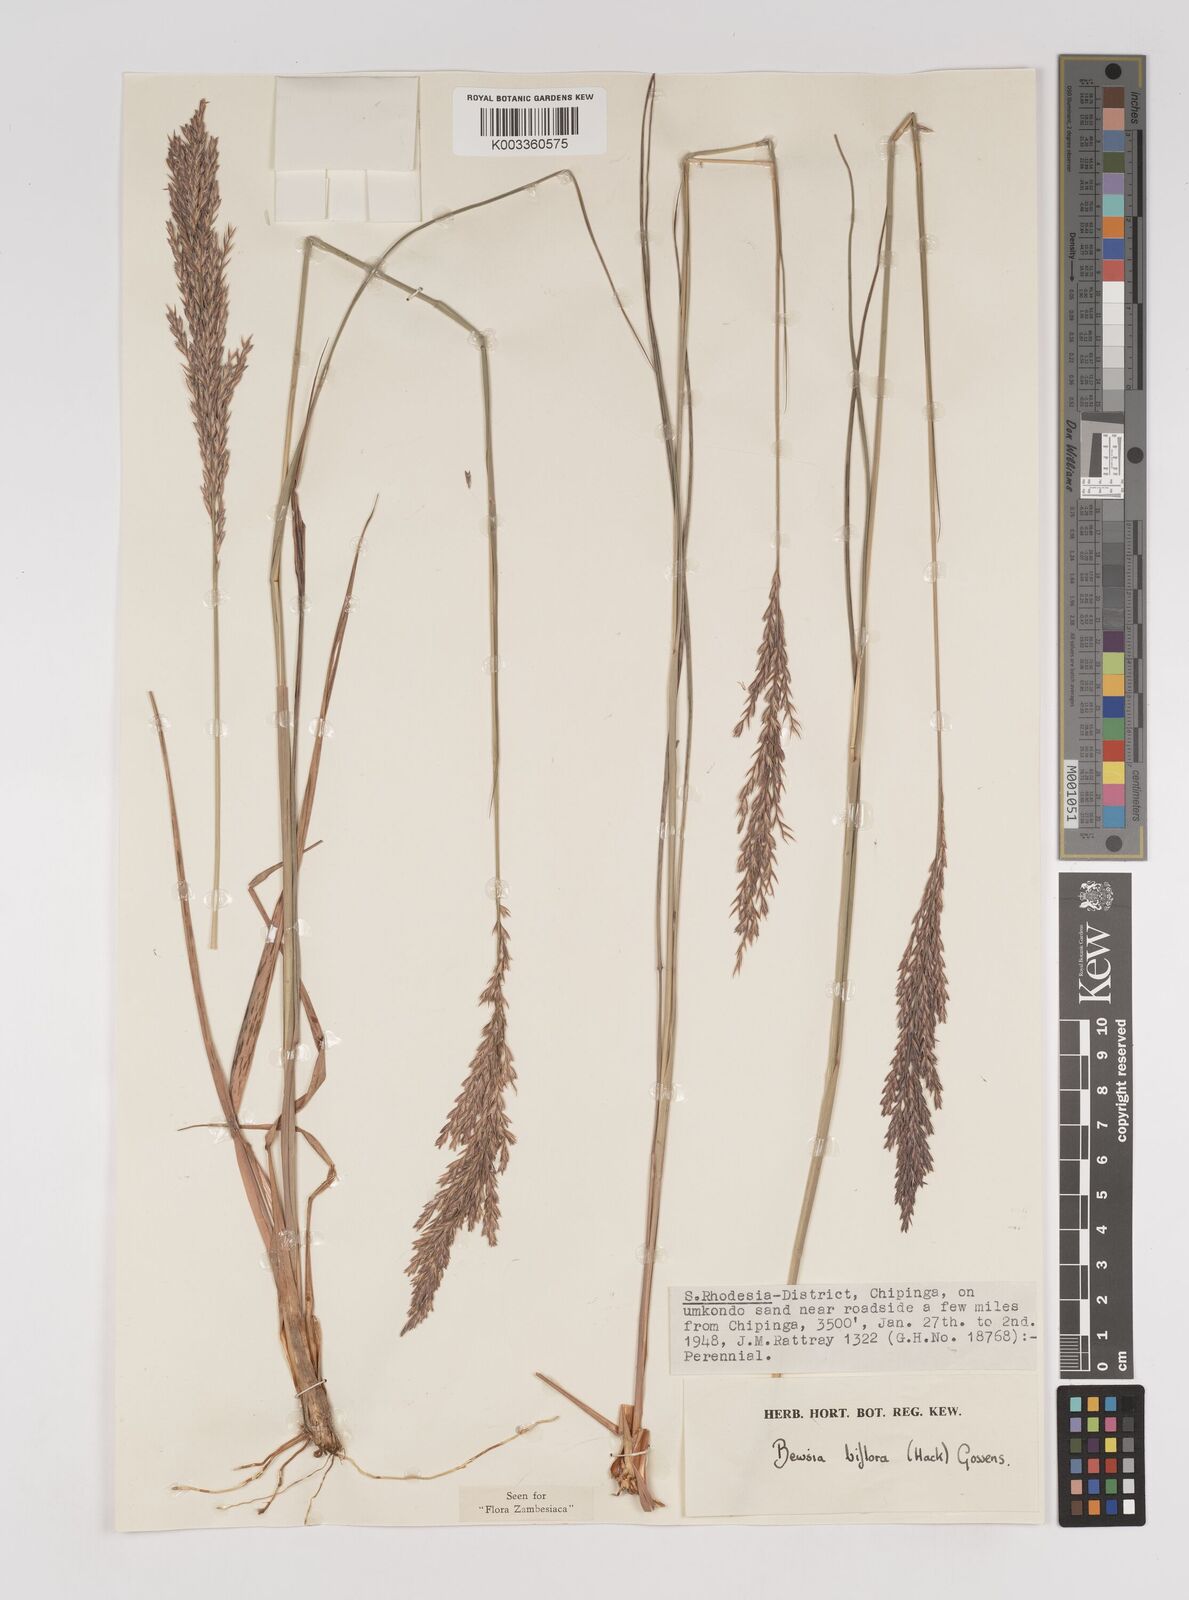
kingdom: Plantae
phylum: Tracheophyta
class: Liliopsida
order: Poales
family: Poaceae
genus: Bewsia
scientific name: Bewsia biflora
